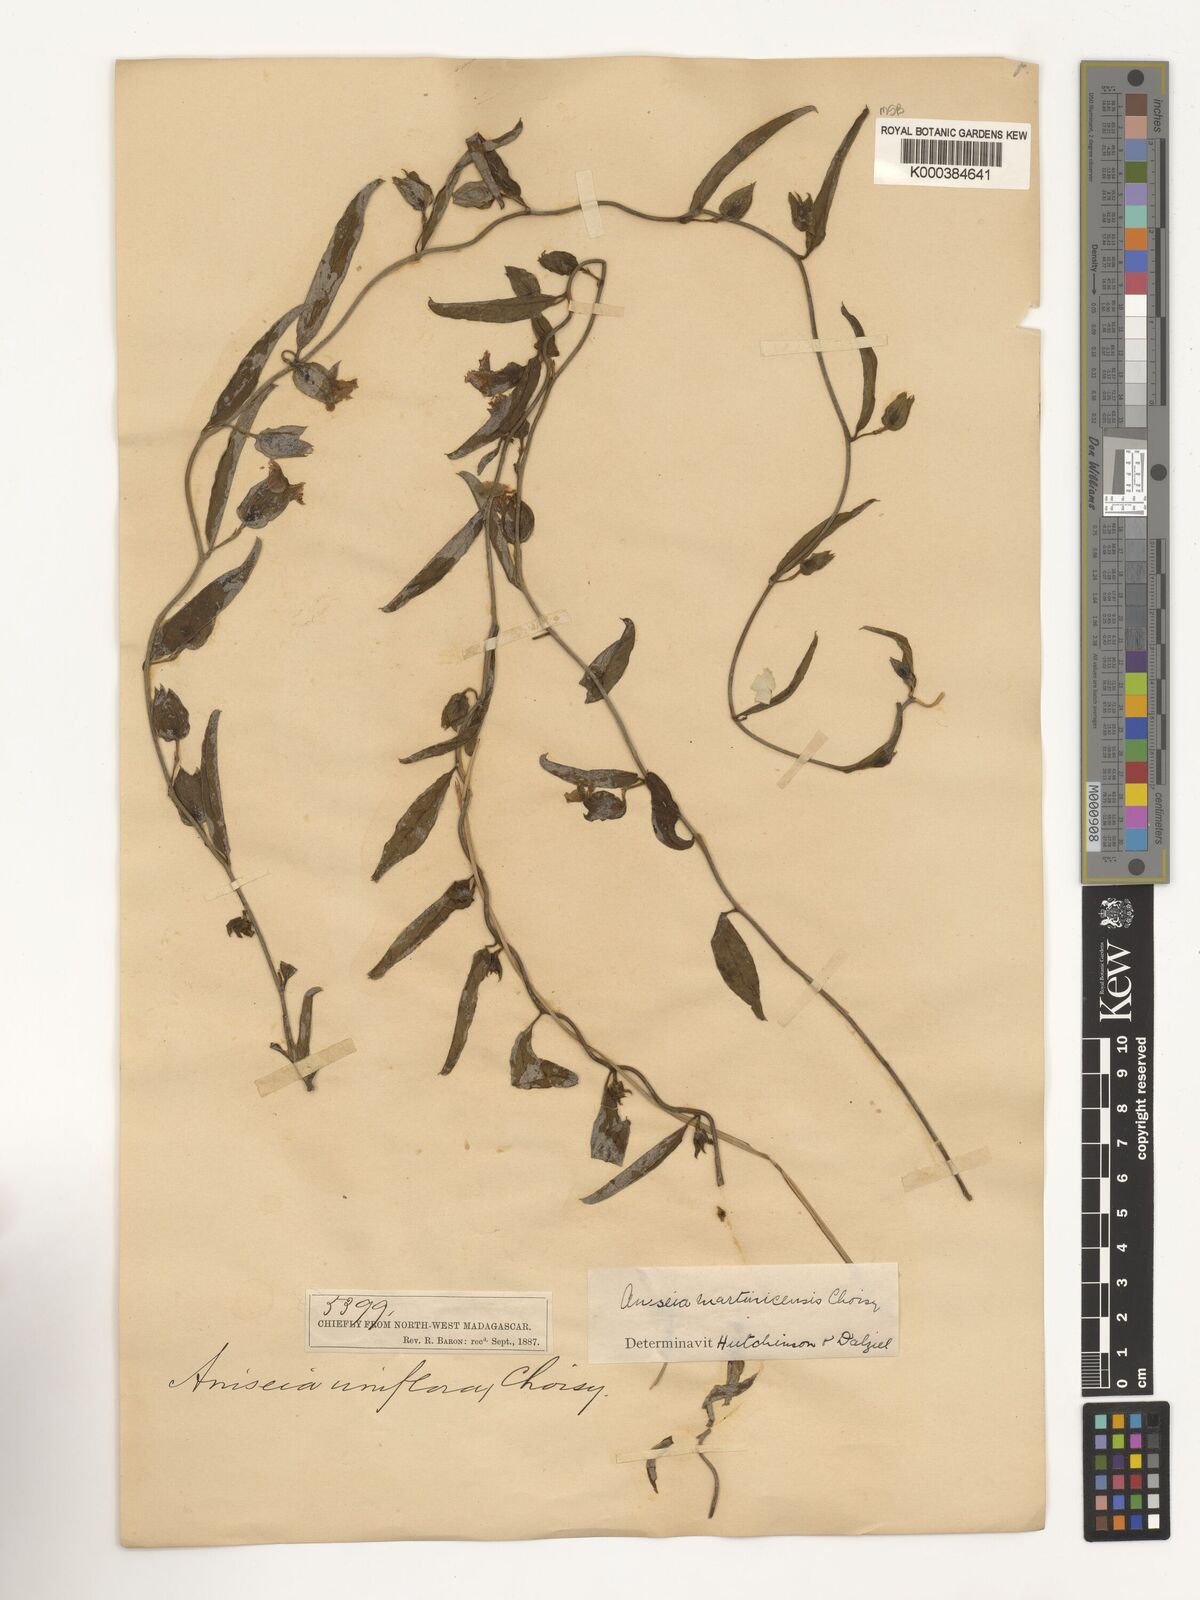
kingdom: Plantae
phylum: Tracheophyta
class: Magnoliopsida
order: Solanales
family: Convolvulaceae
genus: Aniseia
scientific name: Aniseia martinicensis
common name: Kulayadambu
